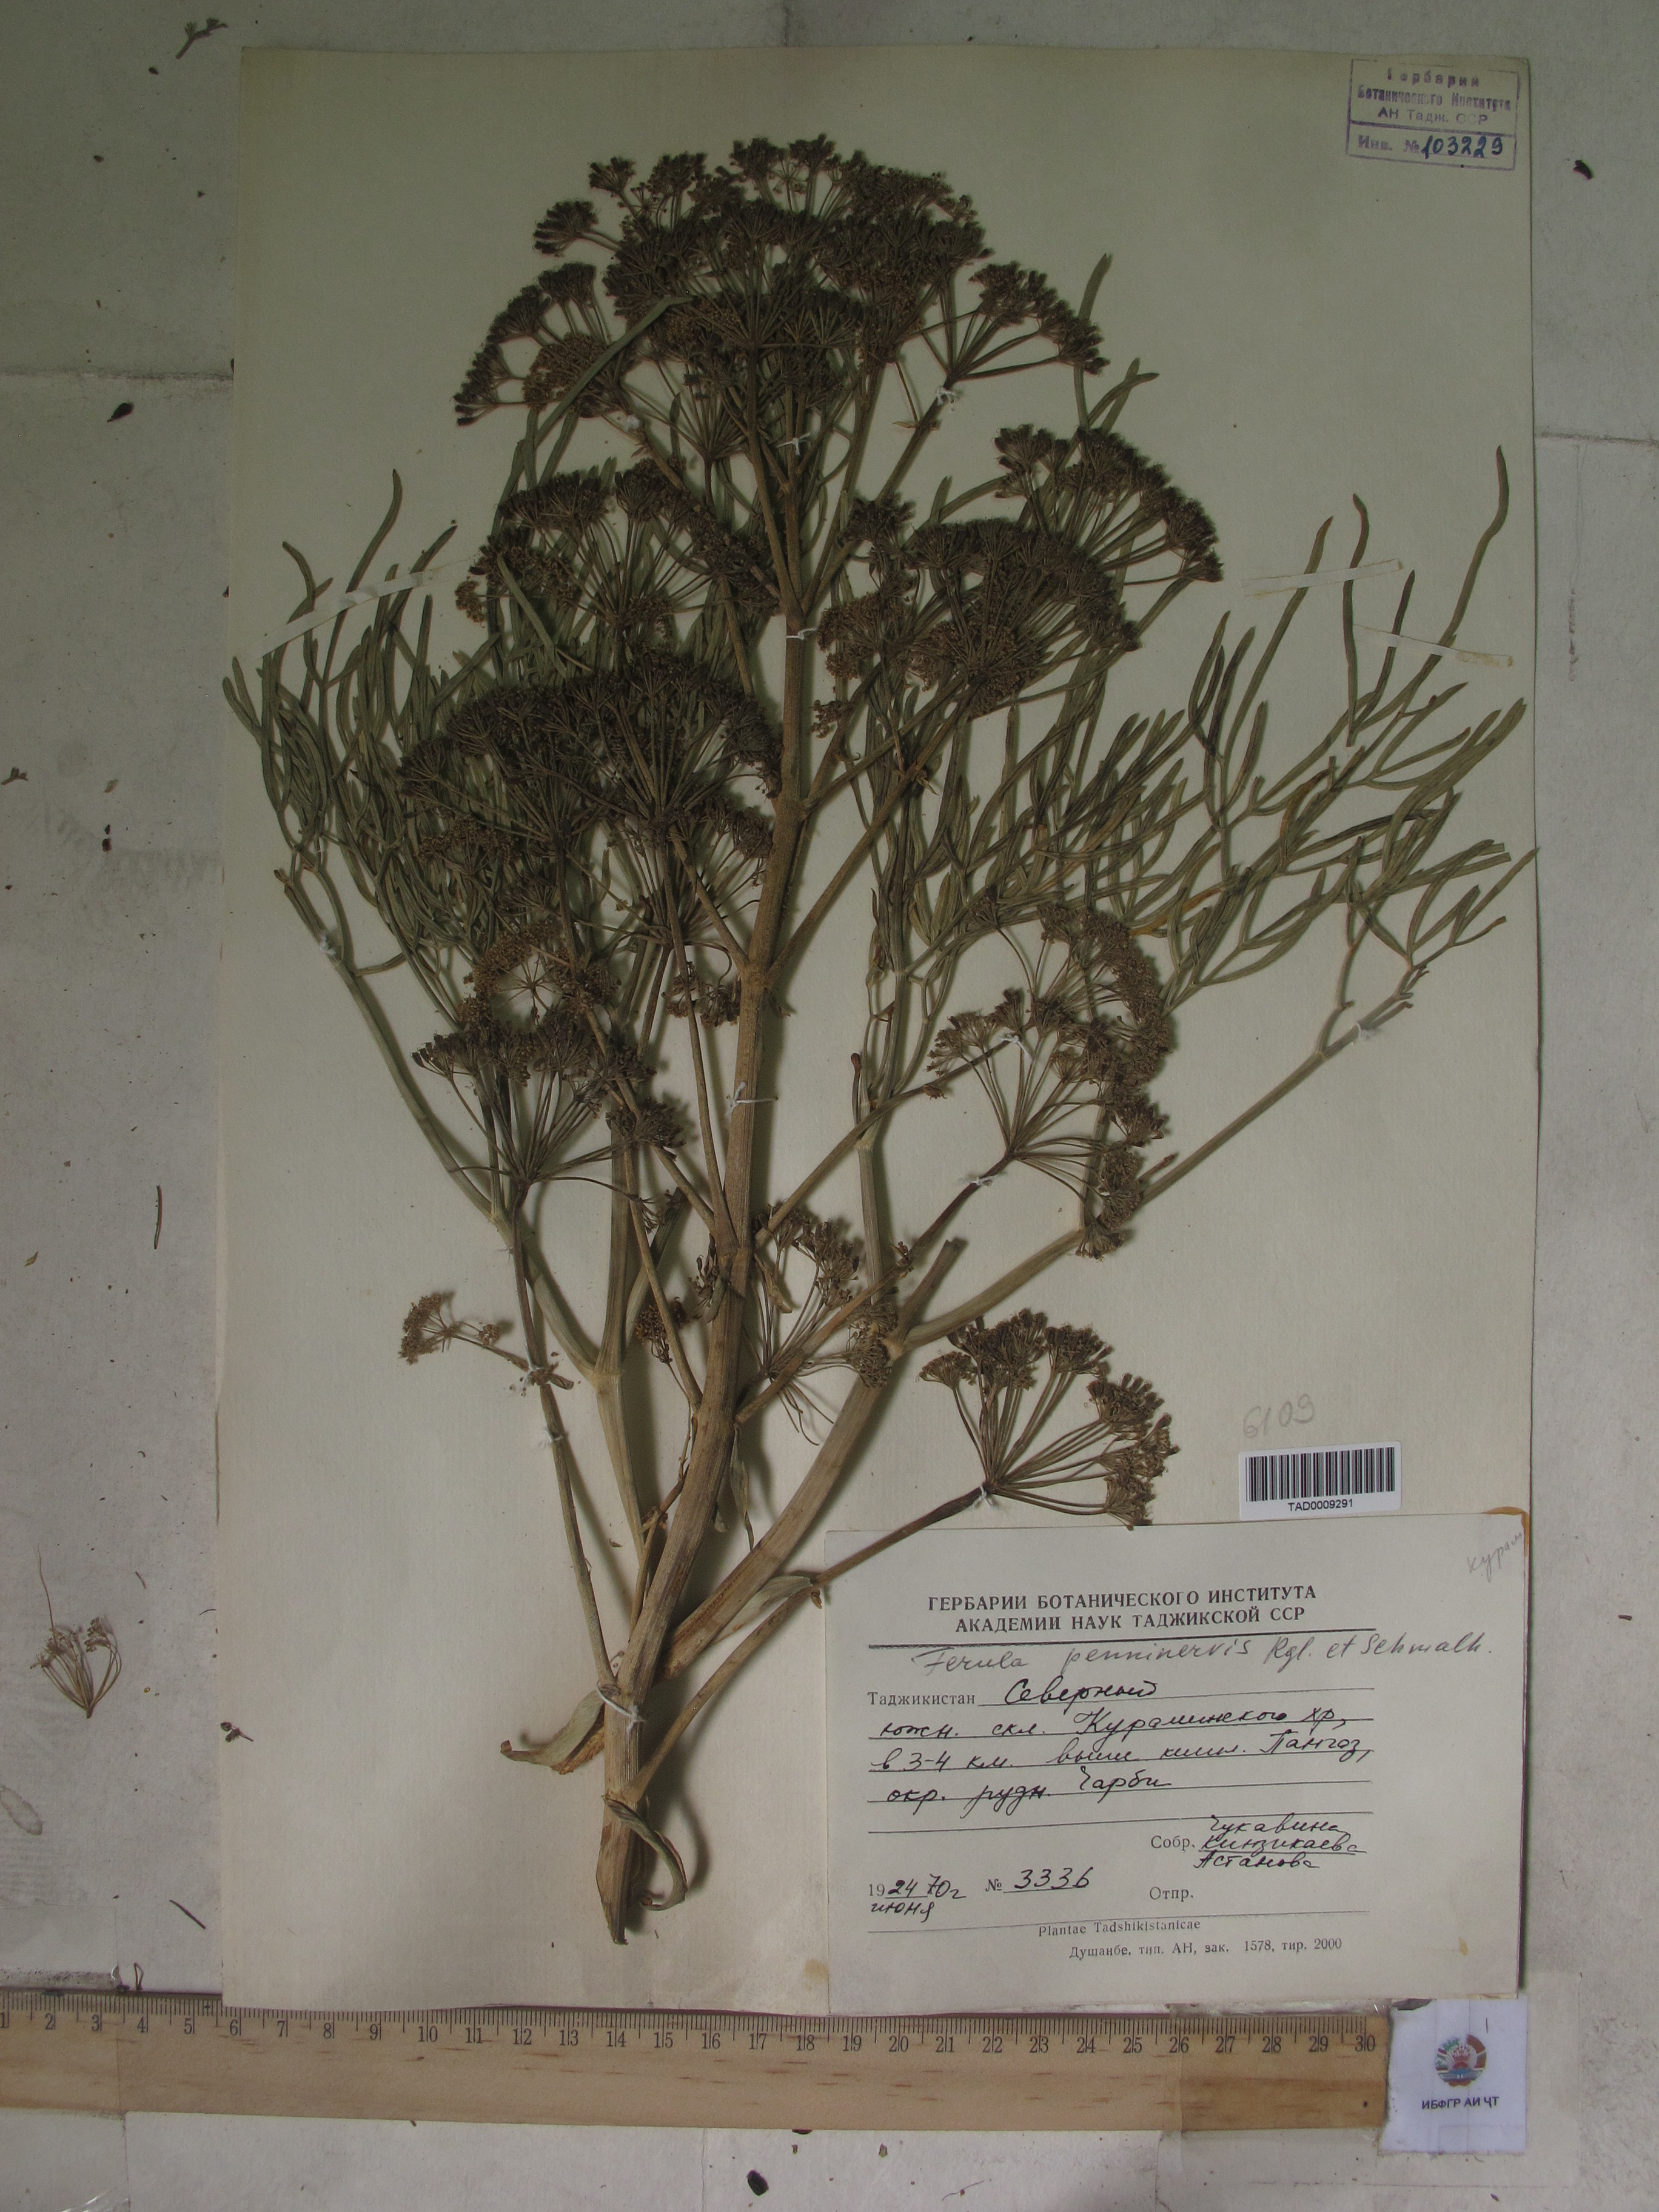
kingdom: Plantae
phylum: Tracheophyta
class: Magnoliopsida
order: Apiales
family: Apiaceae
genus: Ferula
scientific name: Ferula
